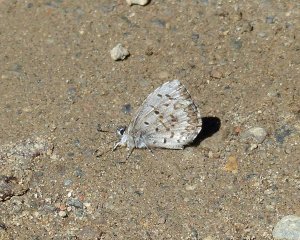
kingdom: Animalia
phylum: Arthropoda
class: Insecta
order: Lepidoptera
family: Lycaenidae
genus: Celastrina
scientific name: Celastrina lucia
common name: Northern Spring Azure
